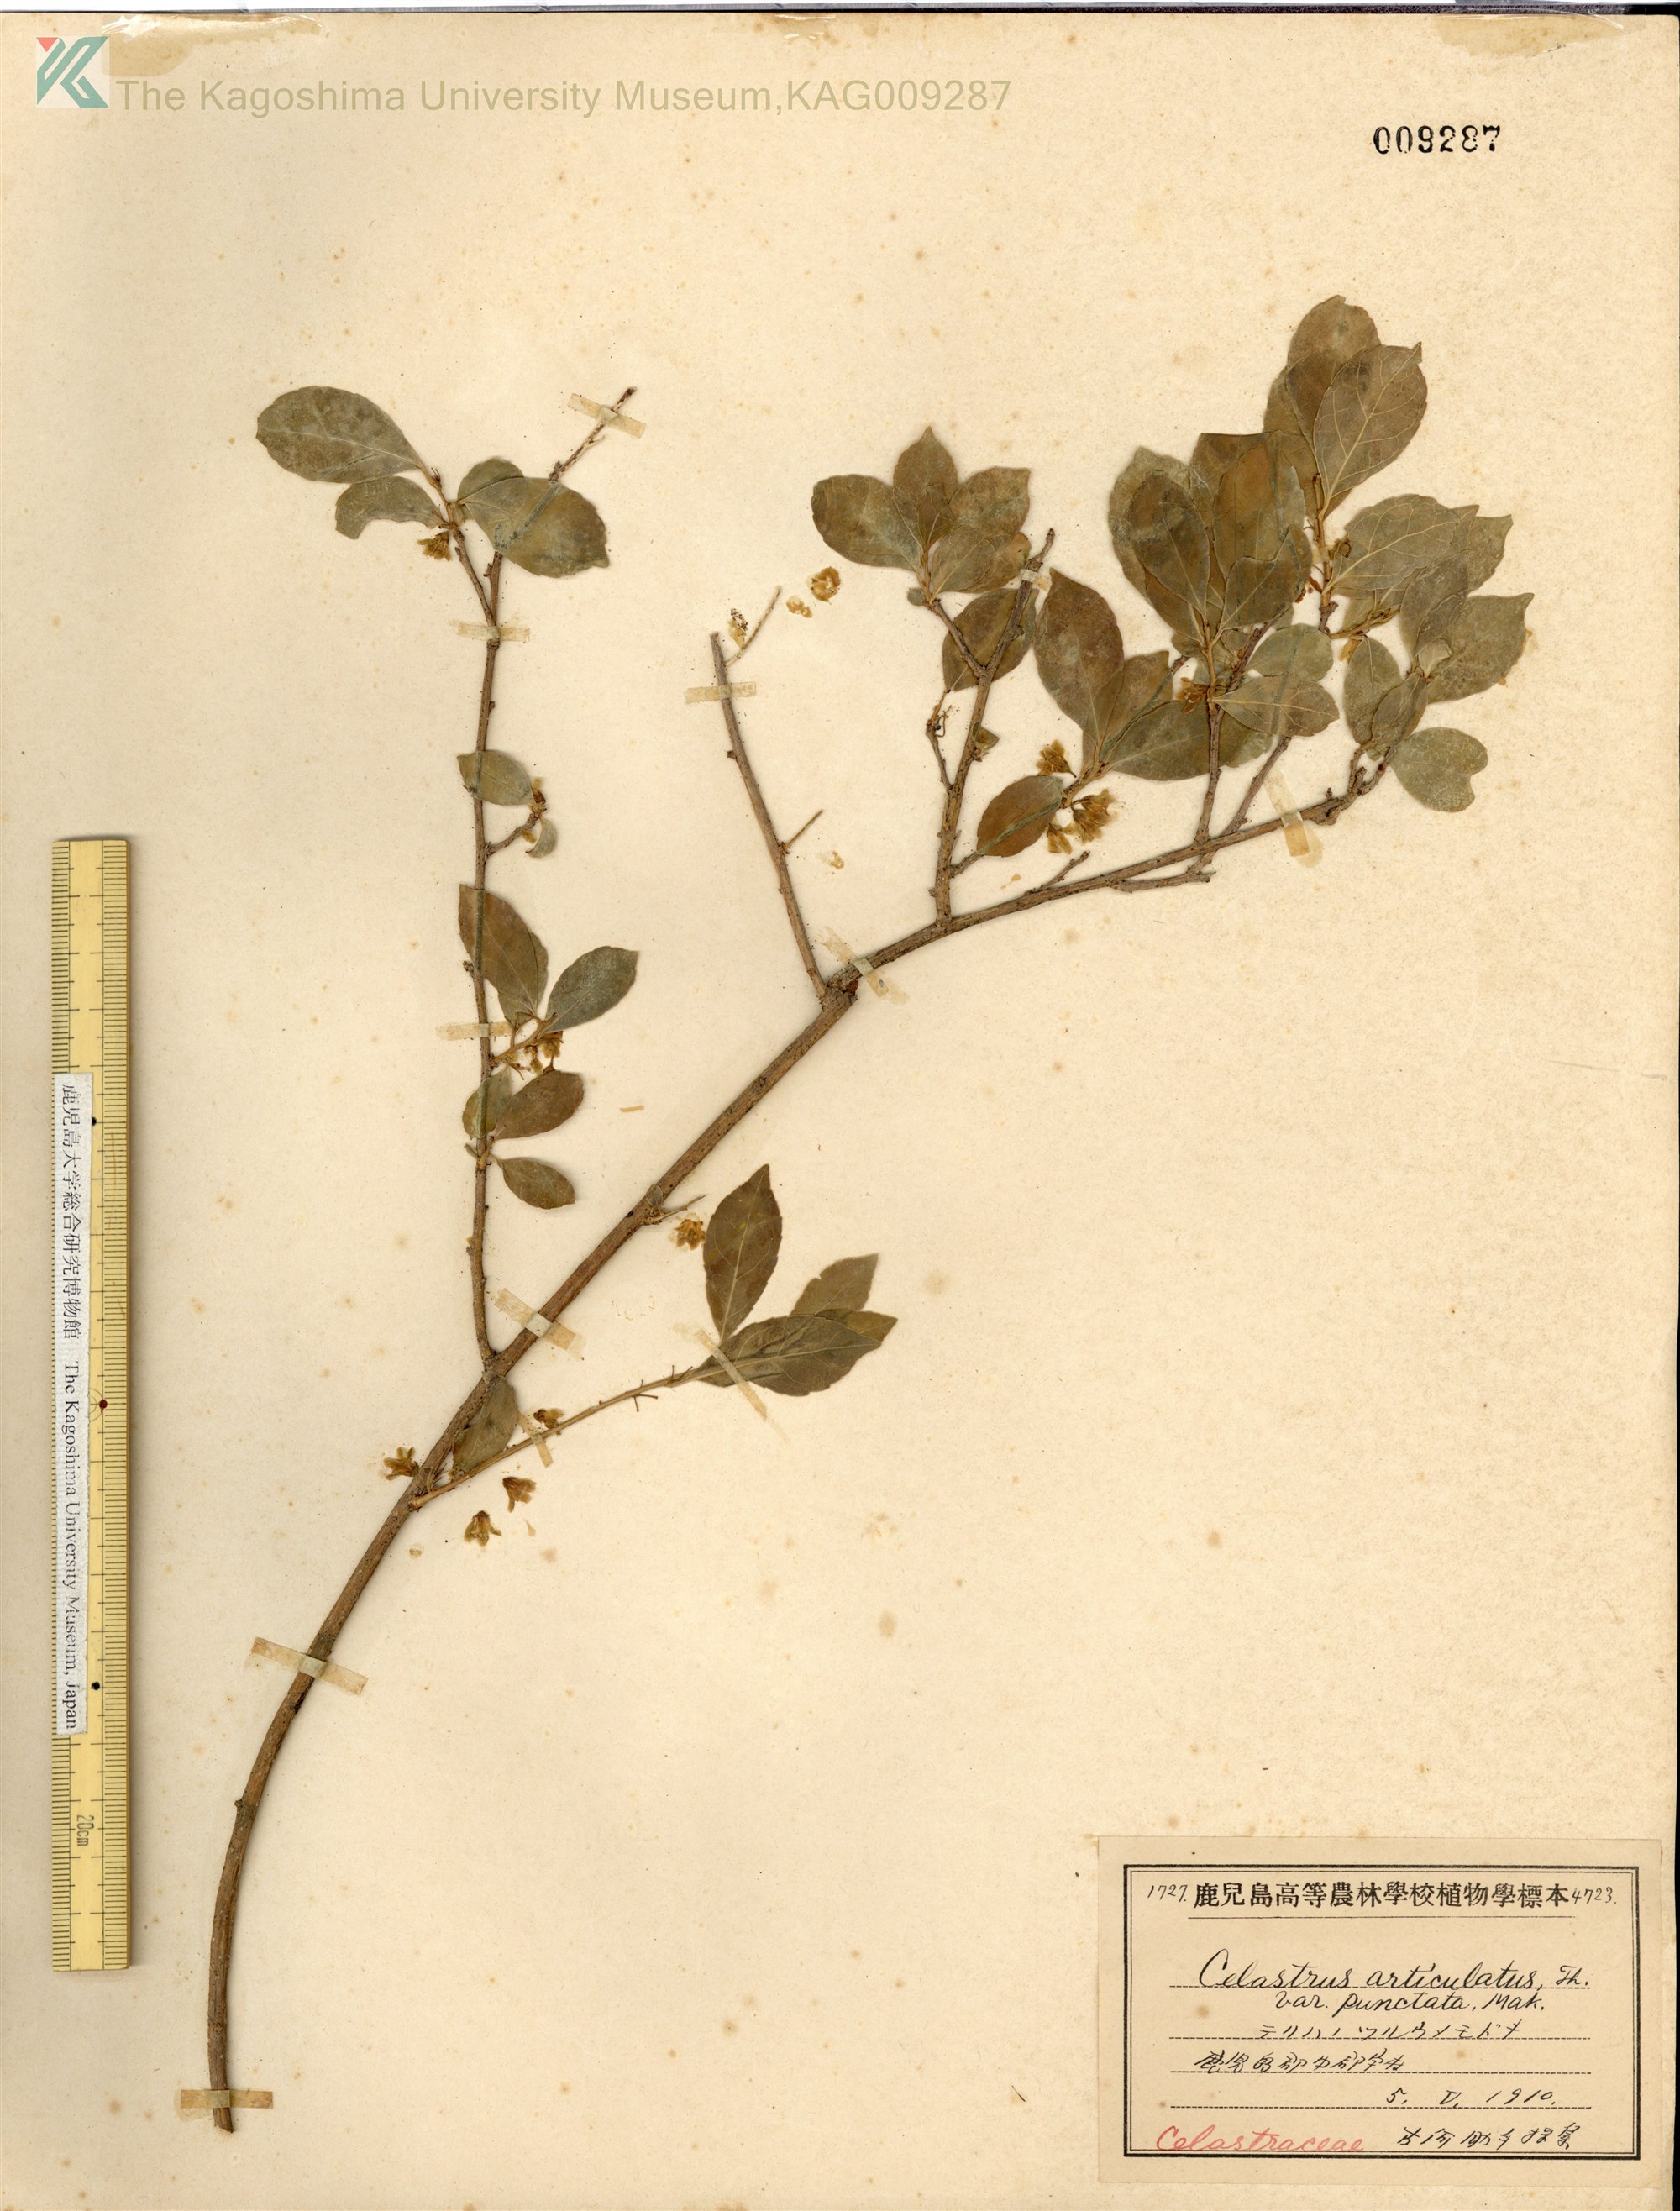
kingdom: Plantae
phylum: Tracheophyta
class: Magnoliopsida
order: Celastrales
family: Celastraceae
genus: Celastrus
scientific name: Celastrus punctatus
